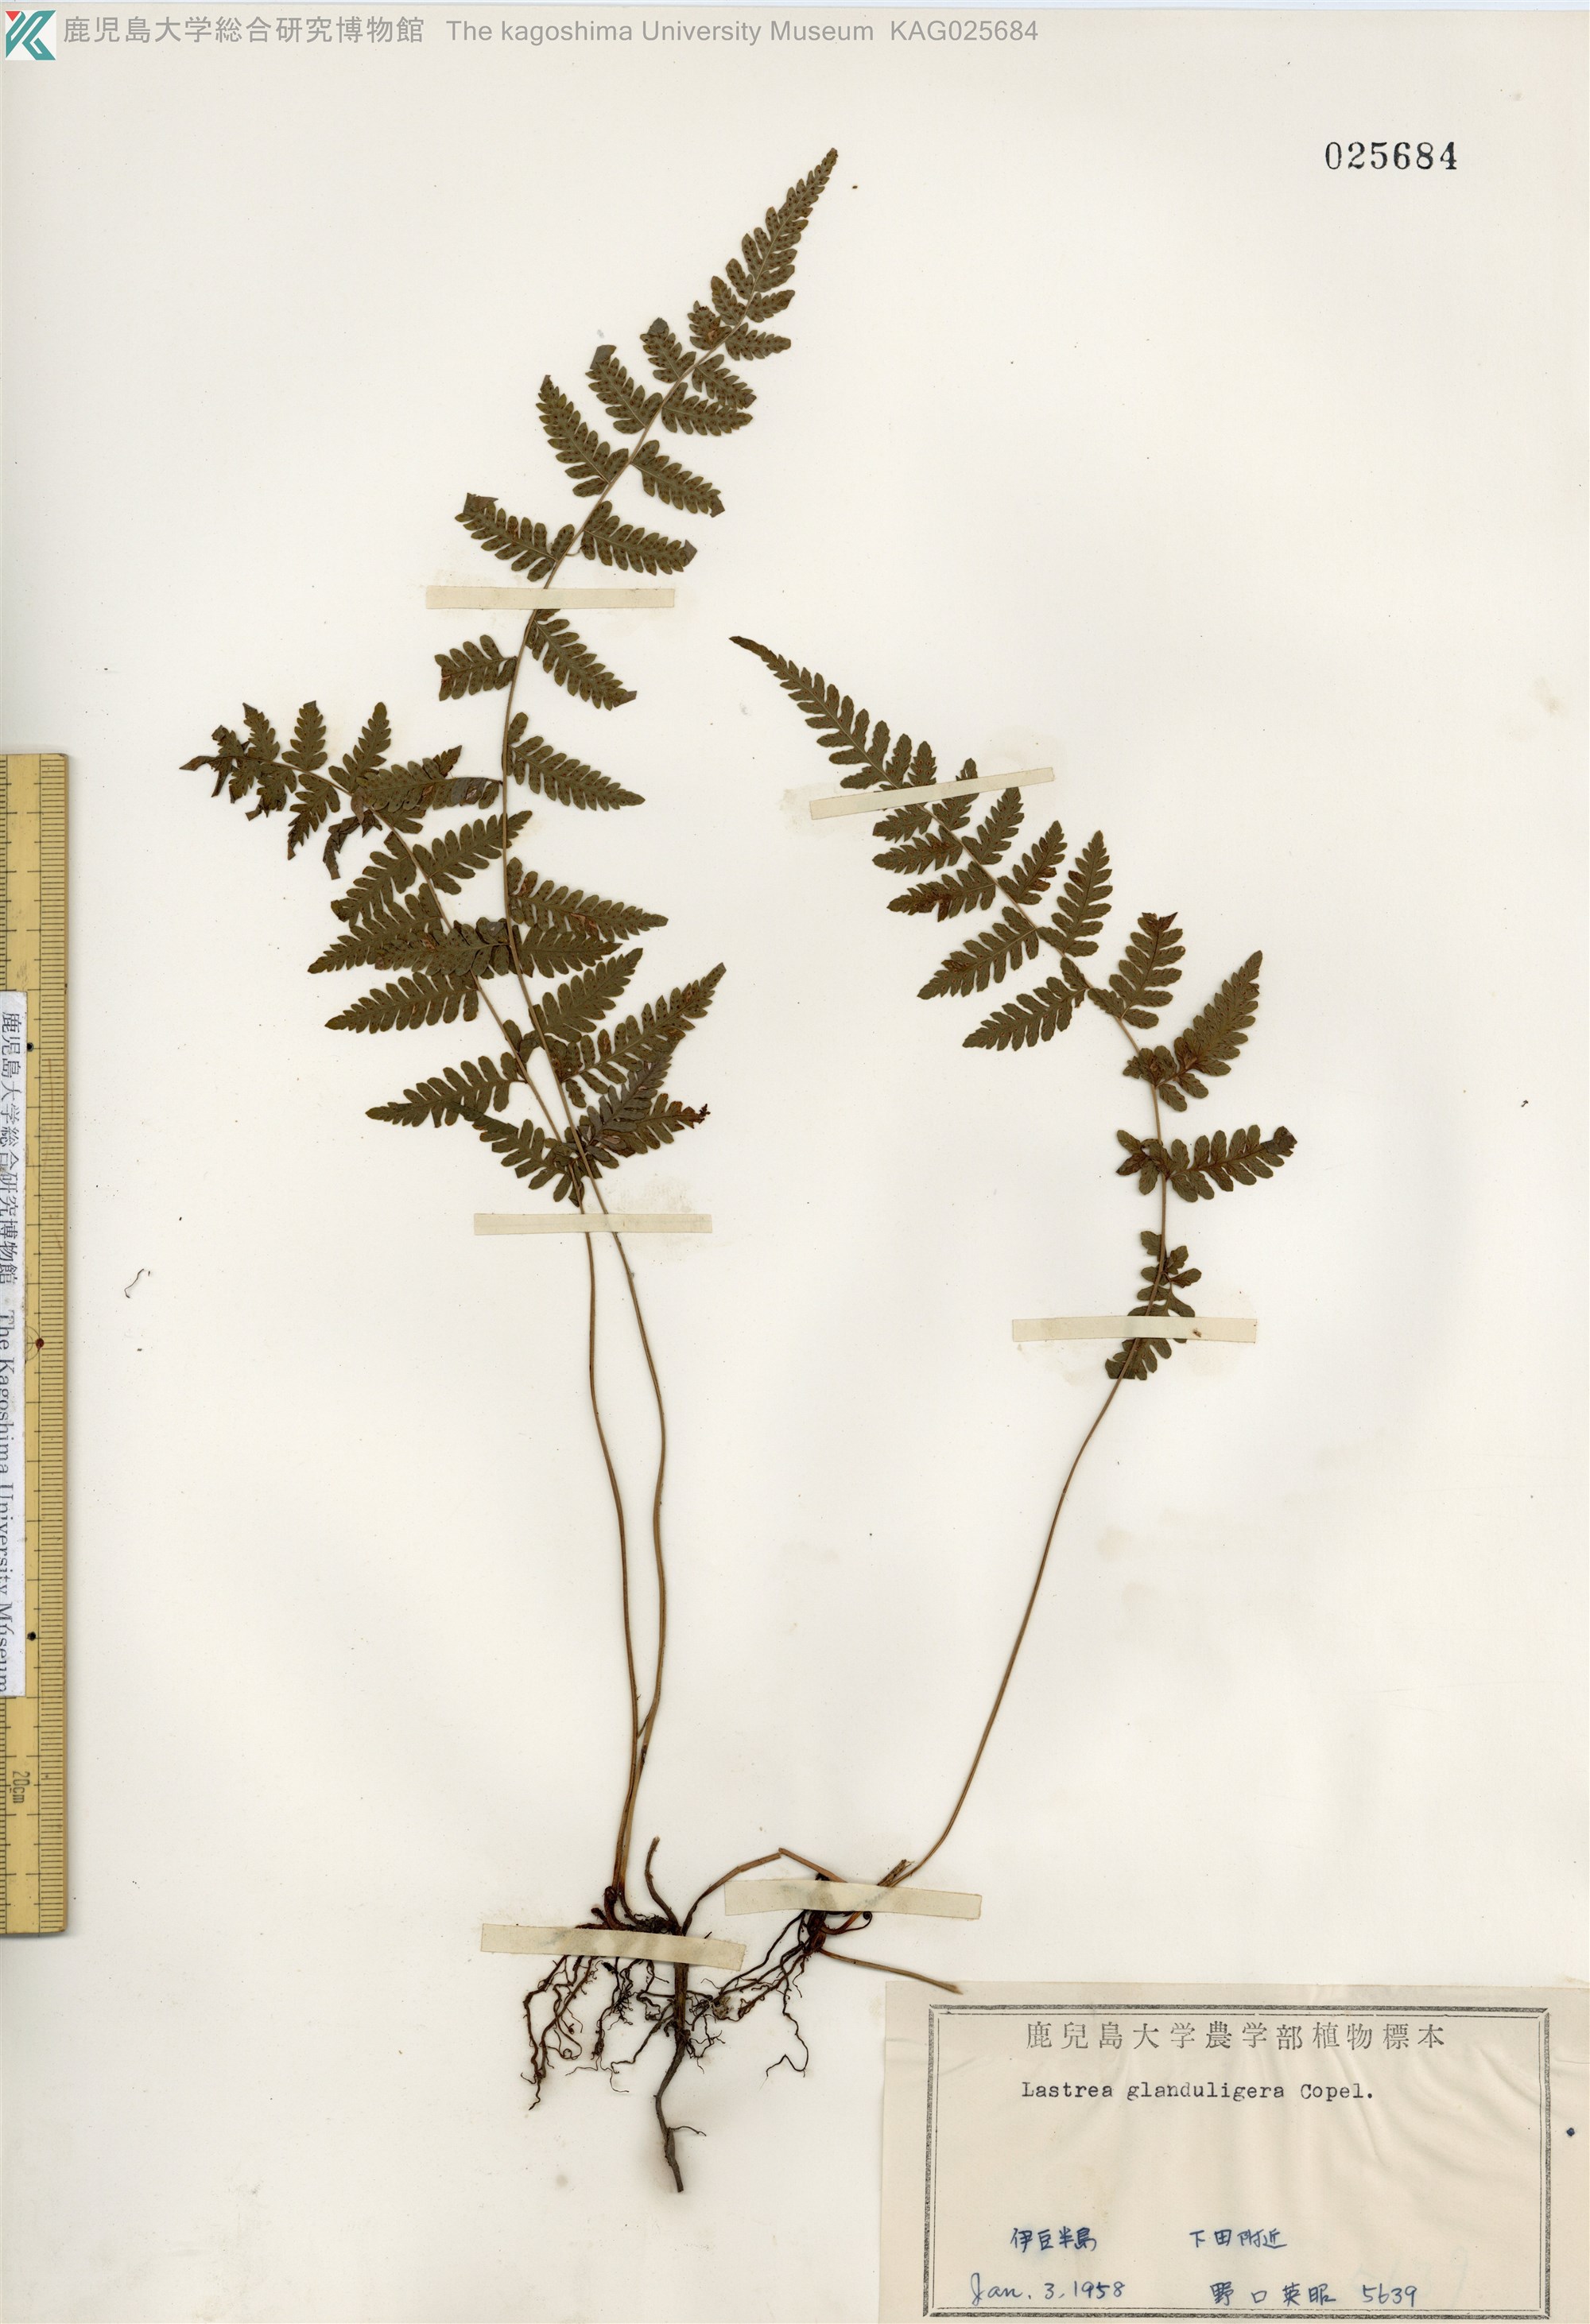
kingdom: Plantae
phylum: Tracheophyta
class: Polypodiopsida
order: Polypodiales
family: Thelypteridaceae
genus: Amauropelta
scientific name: Amauropelta angustifrons
